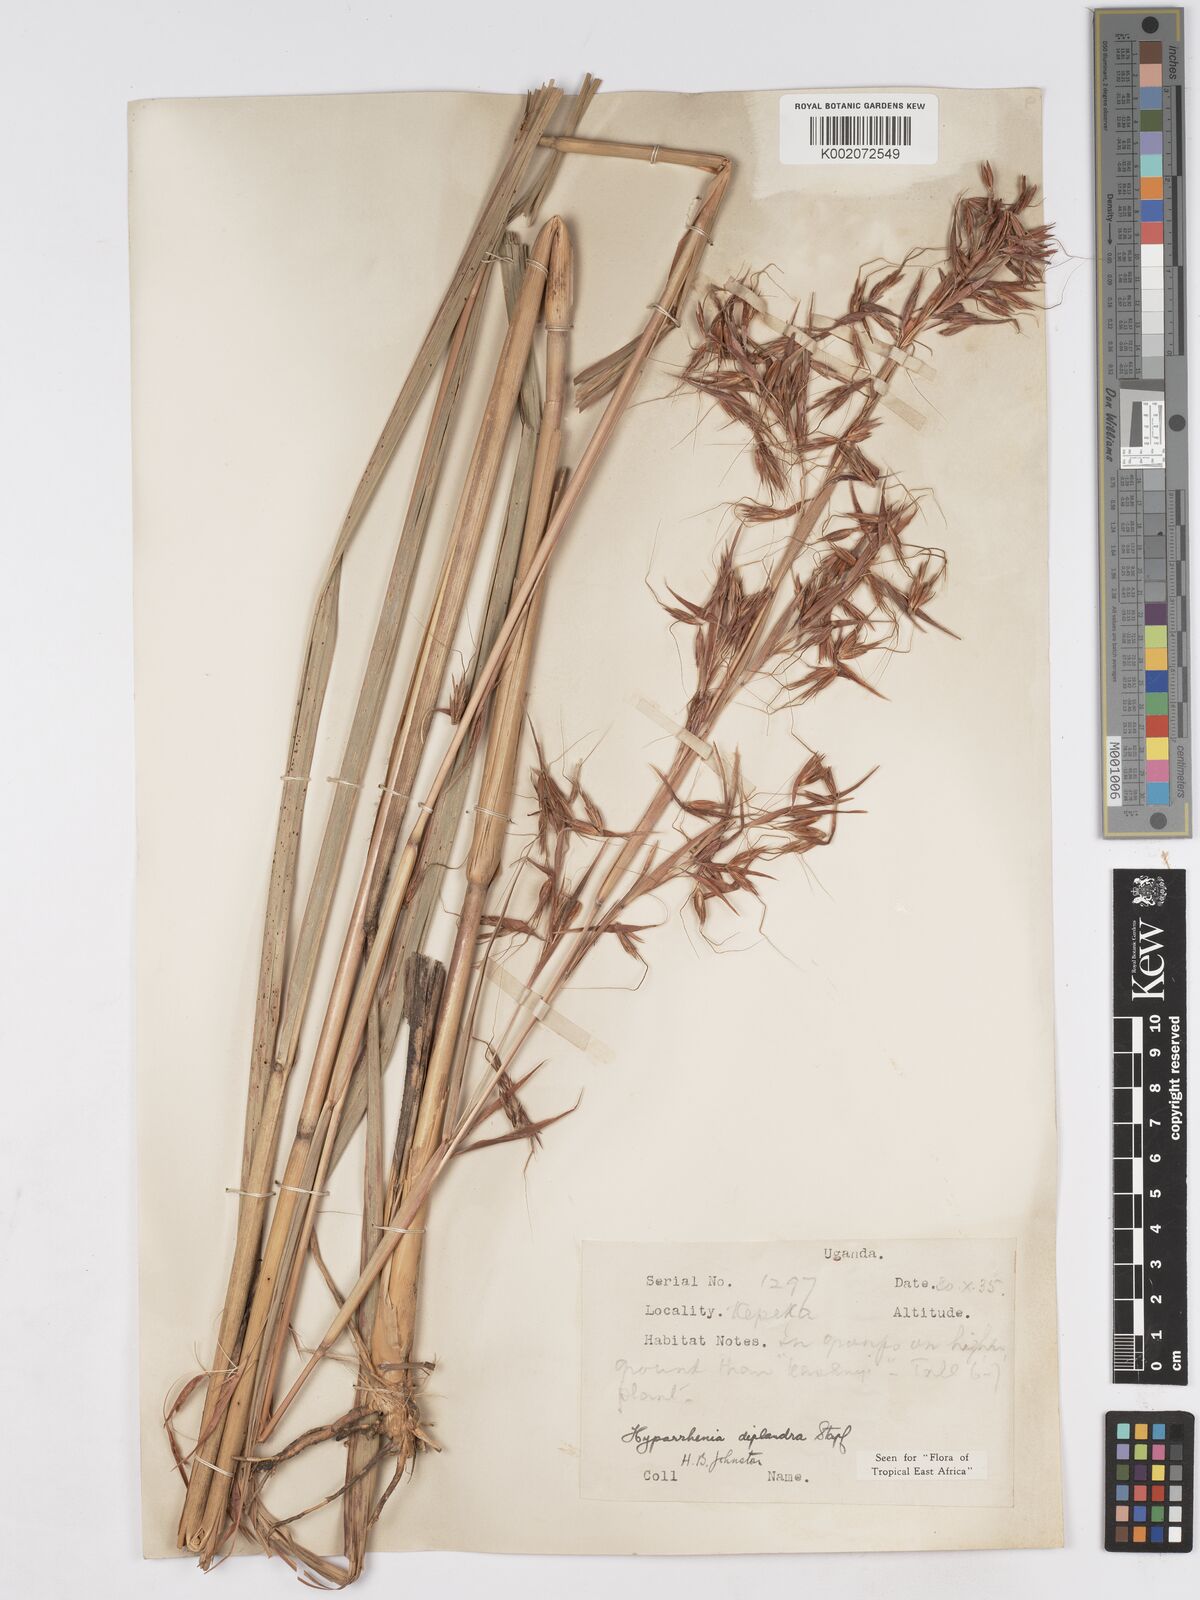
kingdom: Plantae
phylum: Tracheophyta
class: Liliopsida
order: Poales
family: Poaceae
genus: Hyparrhenia
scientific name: Hyparrhenia diplandra
